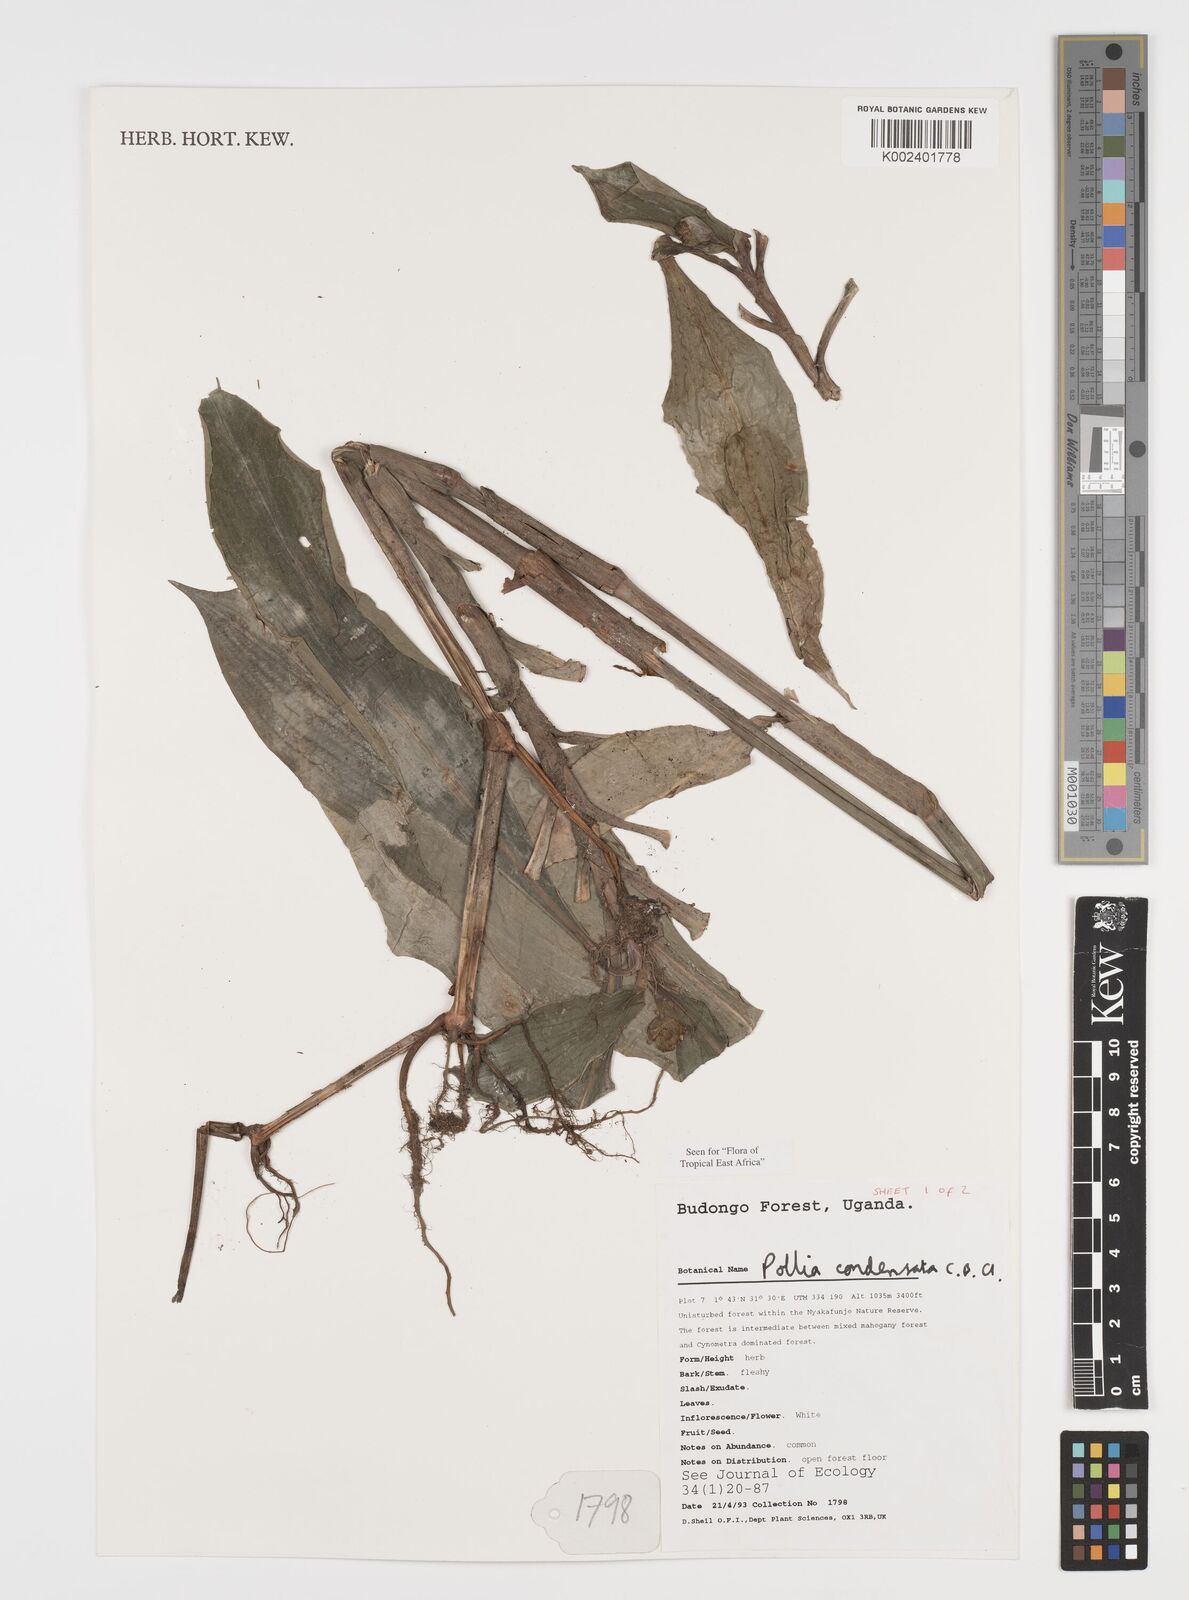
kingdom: Plantae
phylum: Tracheophyta
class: Liliopsida
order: Commelinales
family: Commelinaceae
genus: Pollia
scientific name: Pollia condensata
